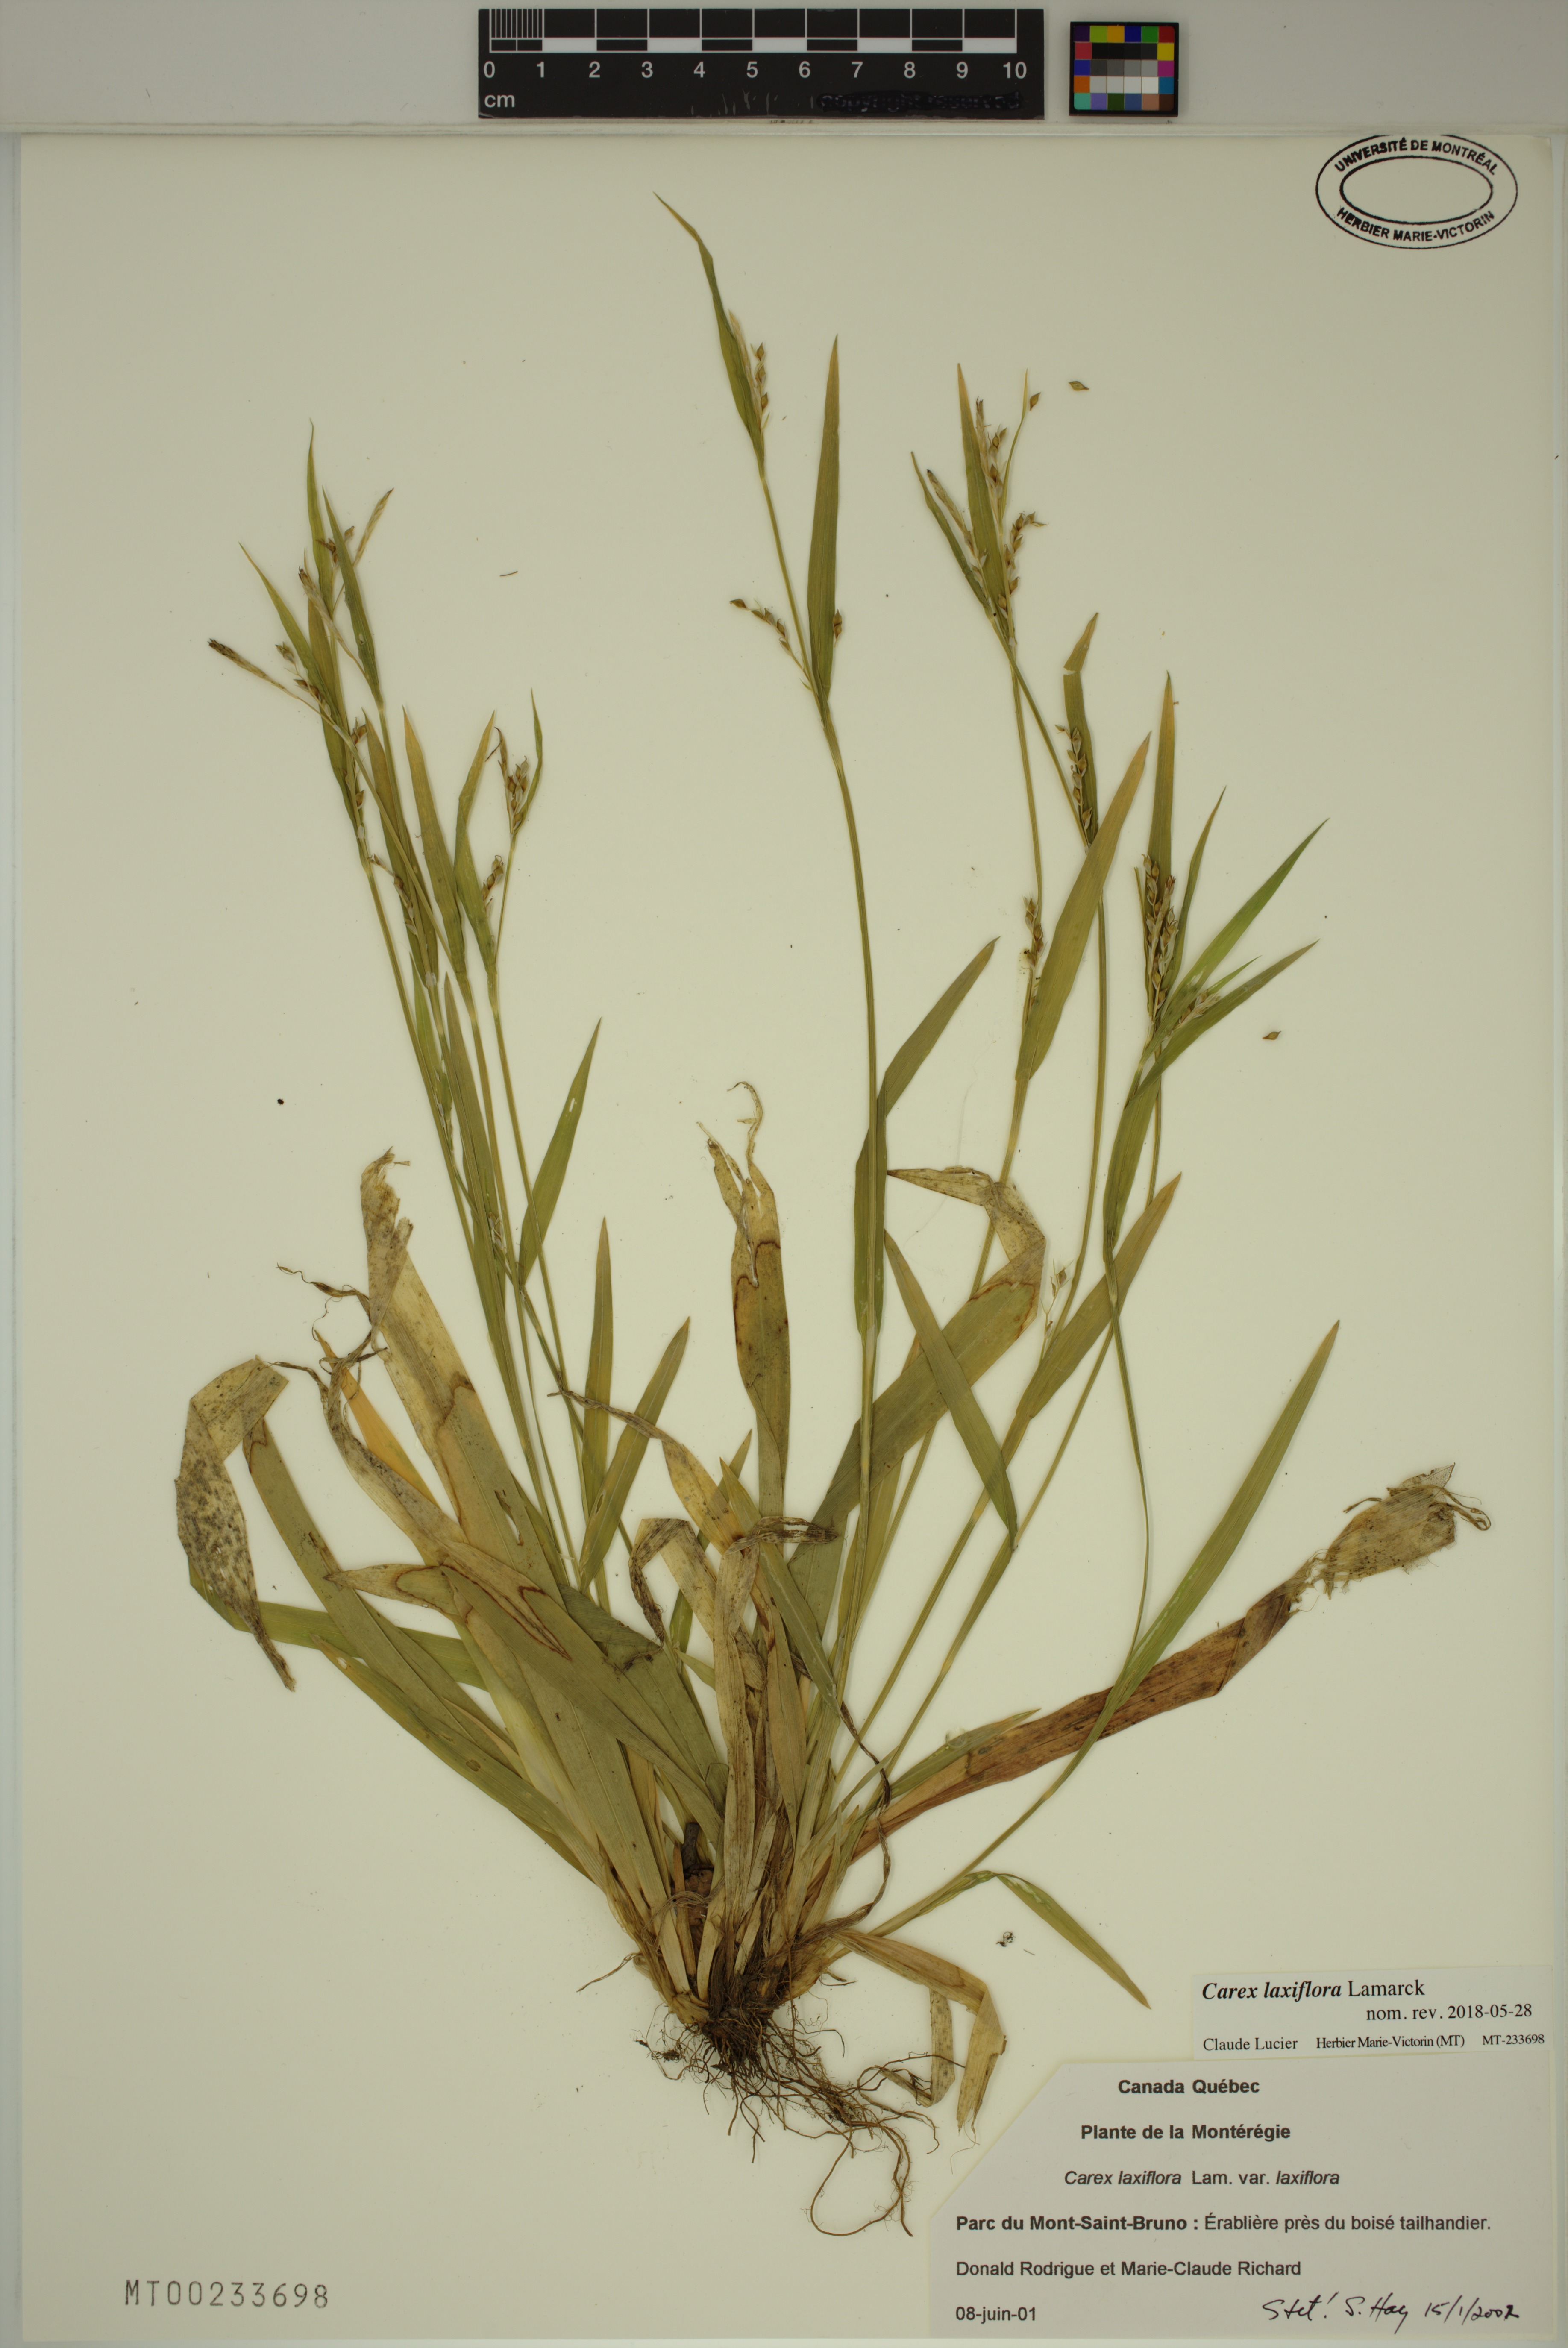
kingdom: Plantae
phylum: Tracheophyta
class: Liliopsida
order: Poales
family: Cyperaceae
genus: Carex
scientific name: Carex laxiflora
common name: Beech wood sedge
